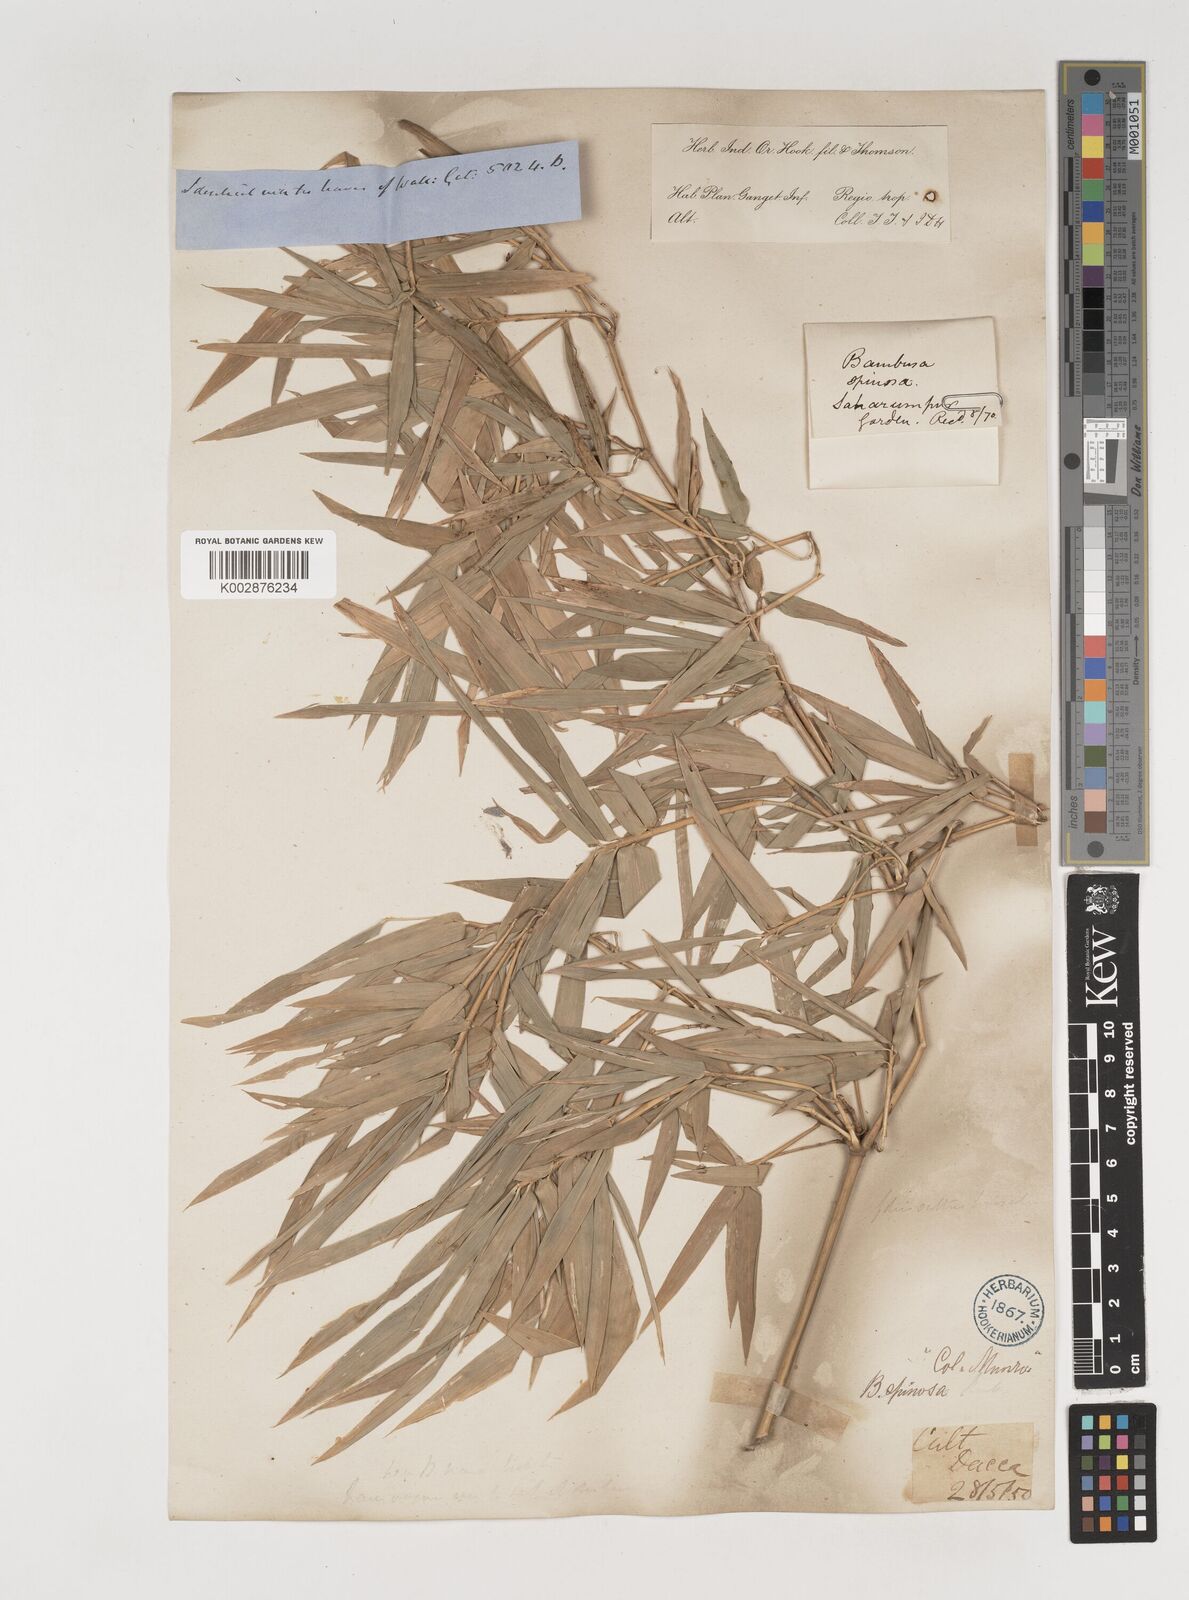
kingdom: Plantae
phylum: Tracheophyta
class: Liliopsida
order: Poales
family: Poaceae
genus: Bambusa
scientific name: Bambusa bambos
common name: Indian thorny bamboo
